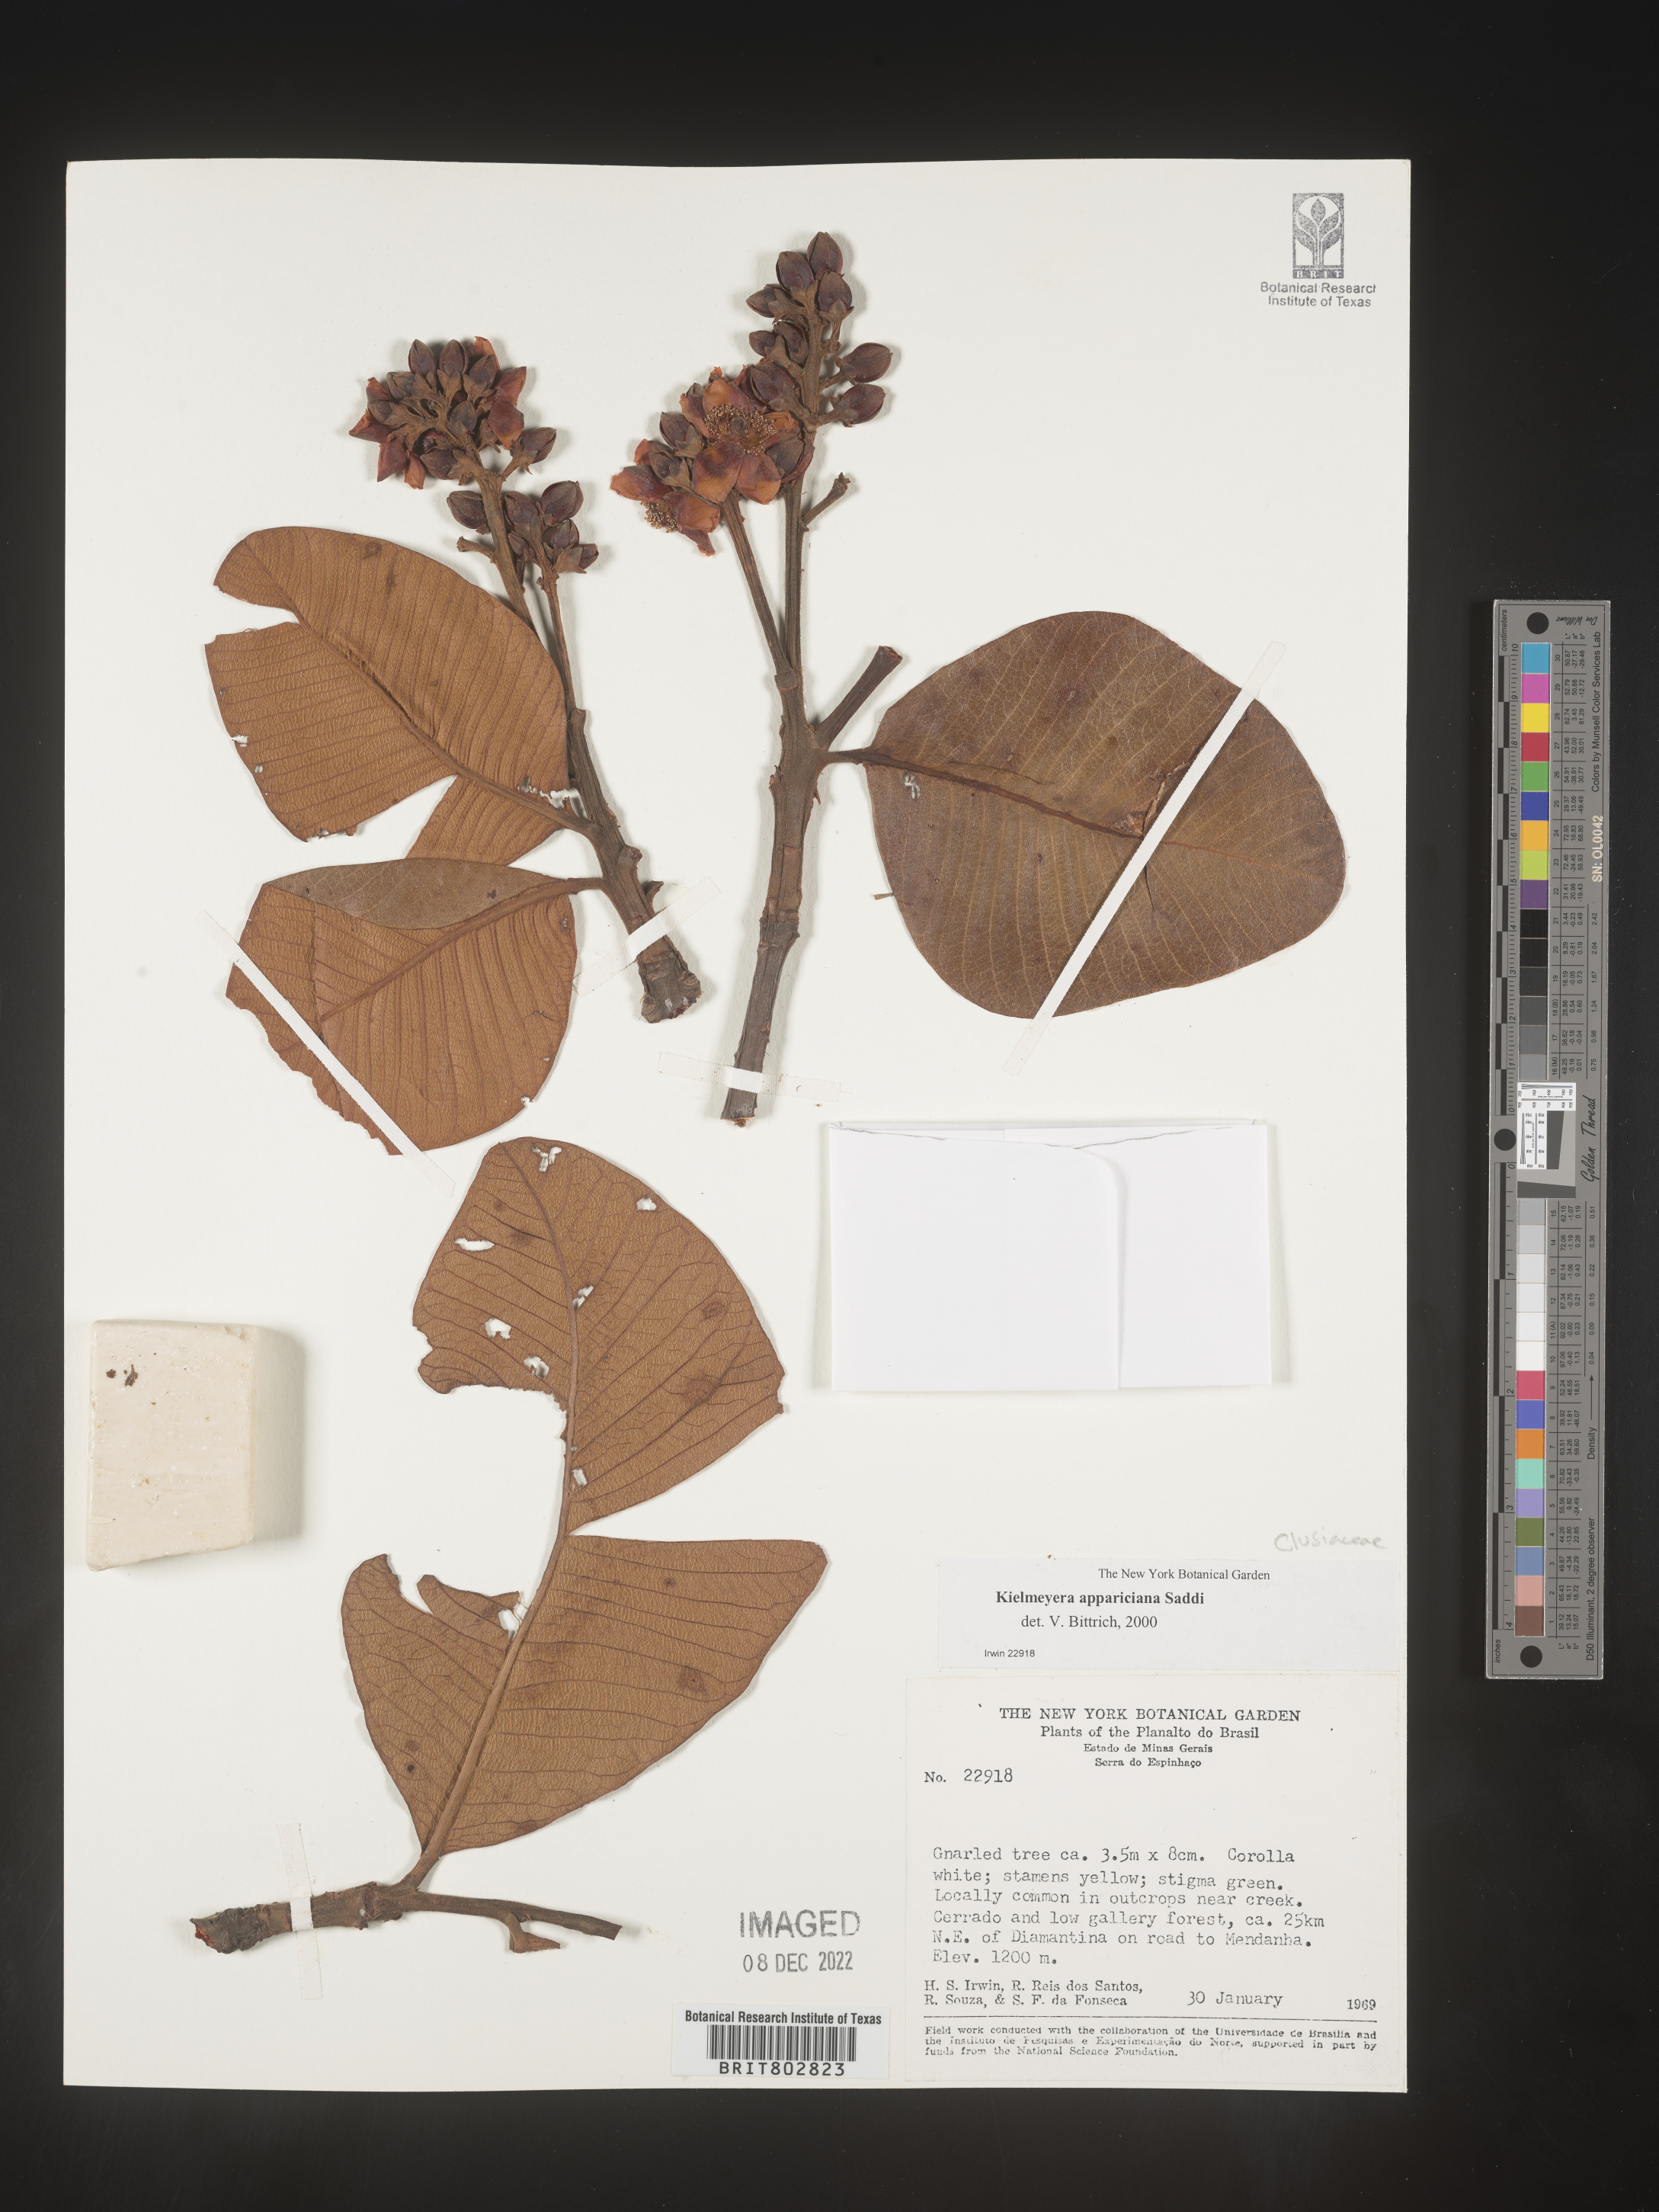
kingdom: Plantae
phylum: Tracheophyta
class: Magnoliopsida
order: Malpighiales
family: Calophyllaceae
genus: Kielmeyera
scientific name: Kielmeyera
